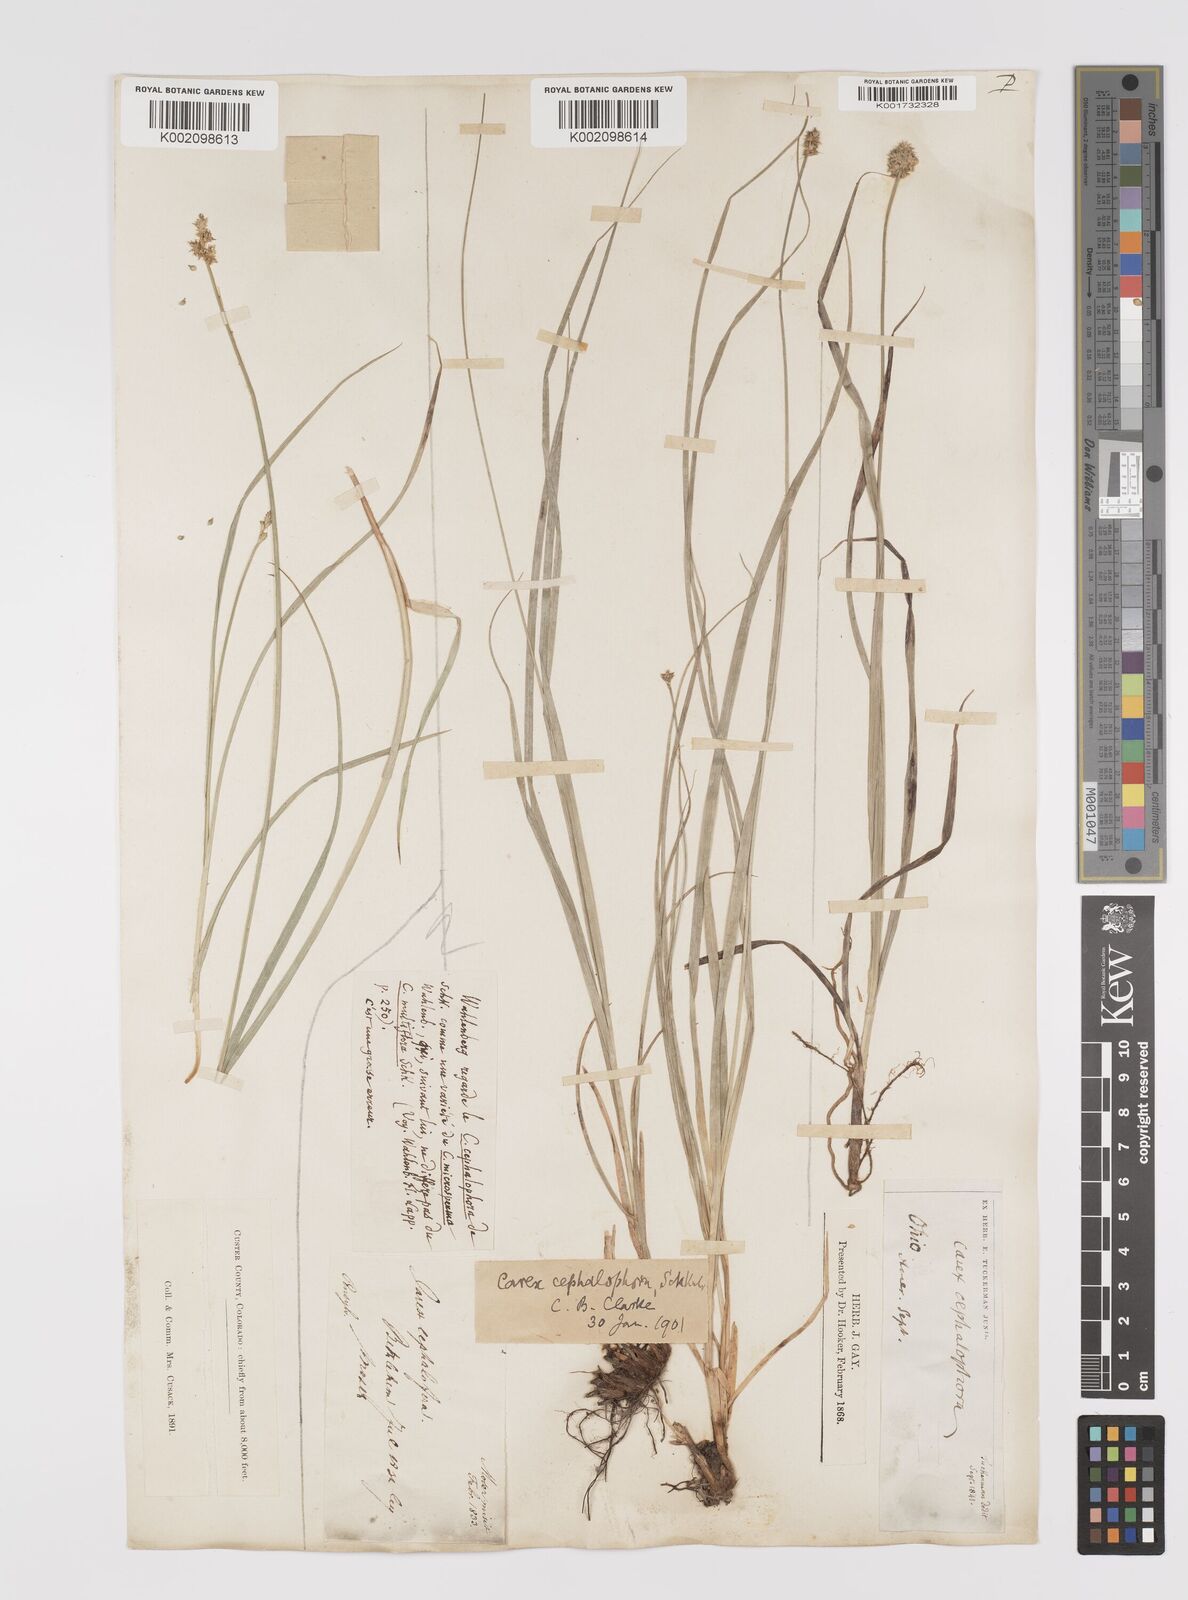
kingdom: Plantae
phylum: Tracheophyta
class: Liliopsida
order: Poales
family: Cyperaceae
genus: Carex
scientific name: Carex cephalophora
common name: Oval-headed sedge
